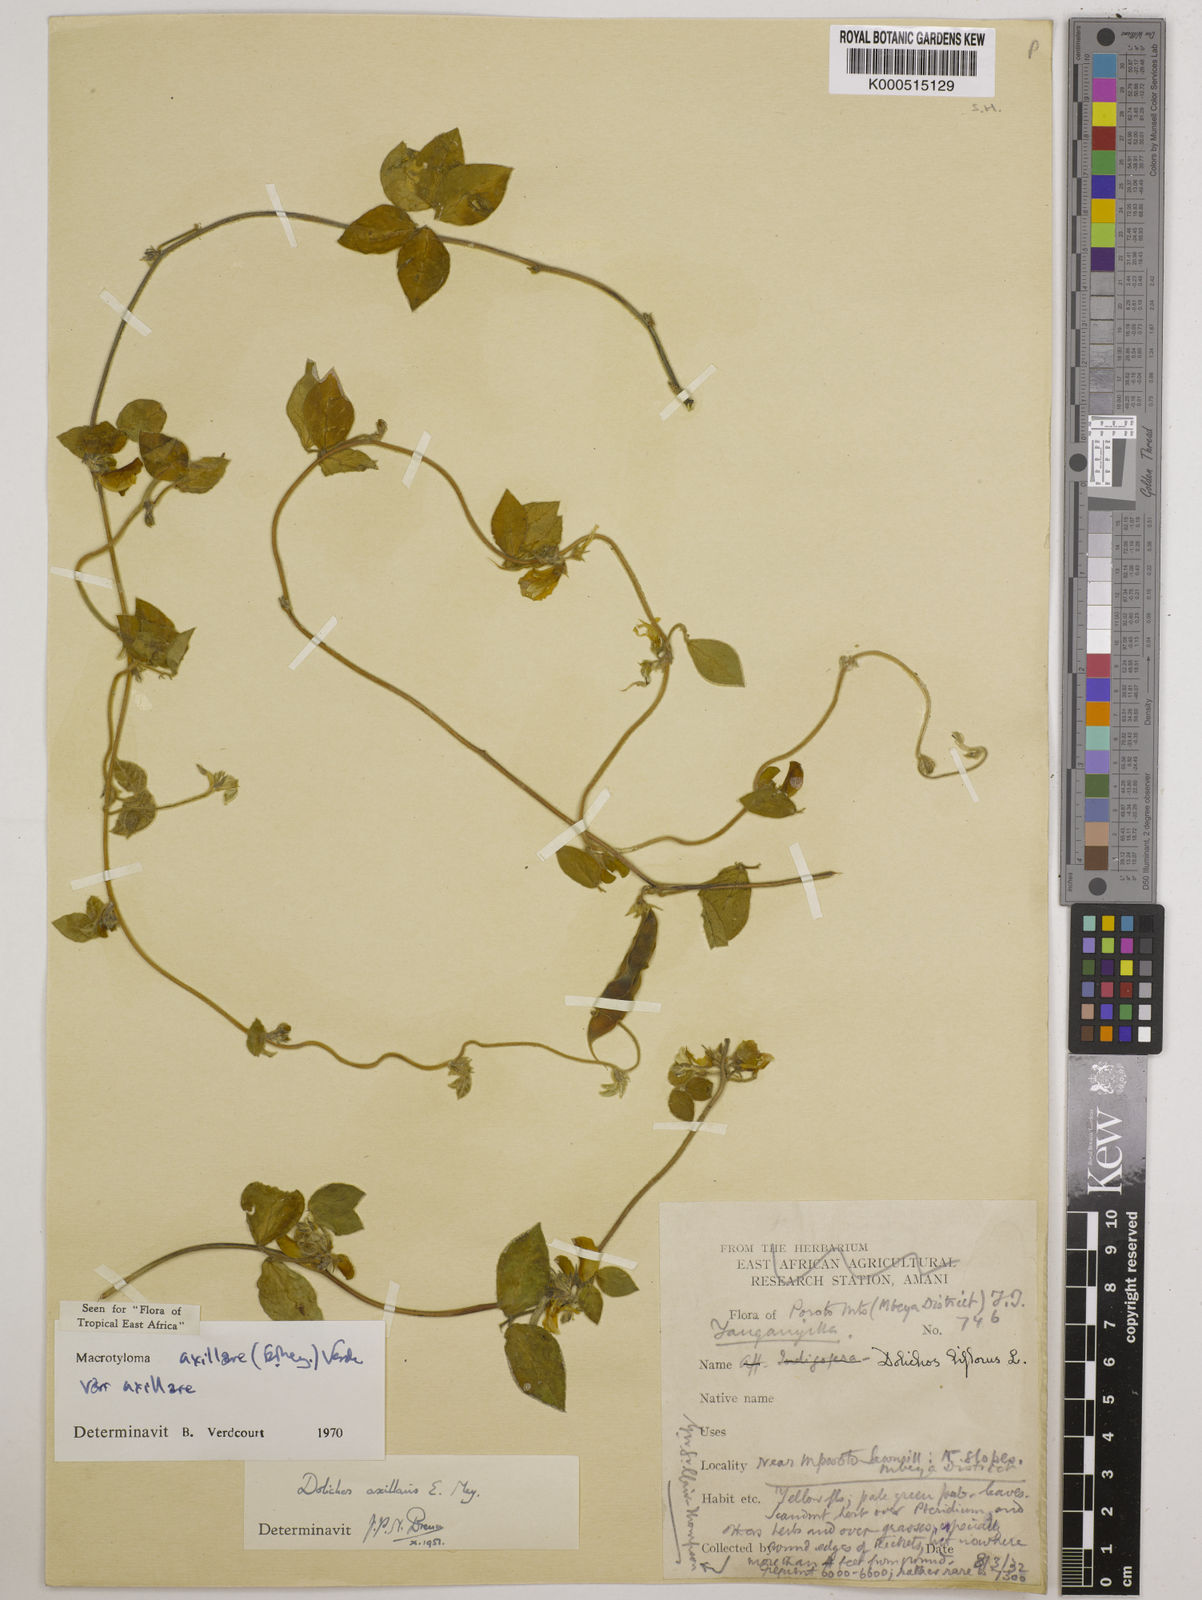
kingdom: Plantae
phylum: Tracheophyta
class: Magnoliopsida
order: Fabales
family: Fabaceae
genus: Macrotyloma
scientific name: Macrotyloma axillare
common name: Perennial horsegram
